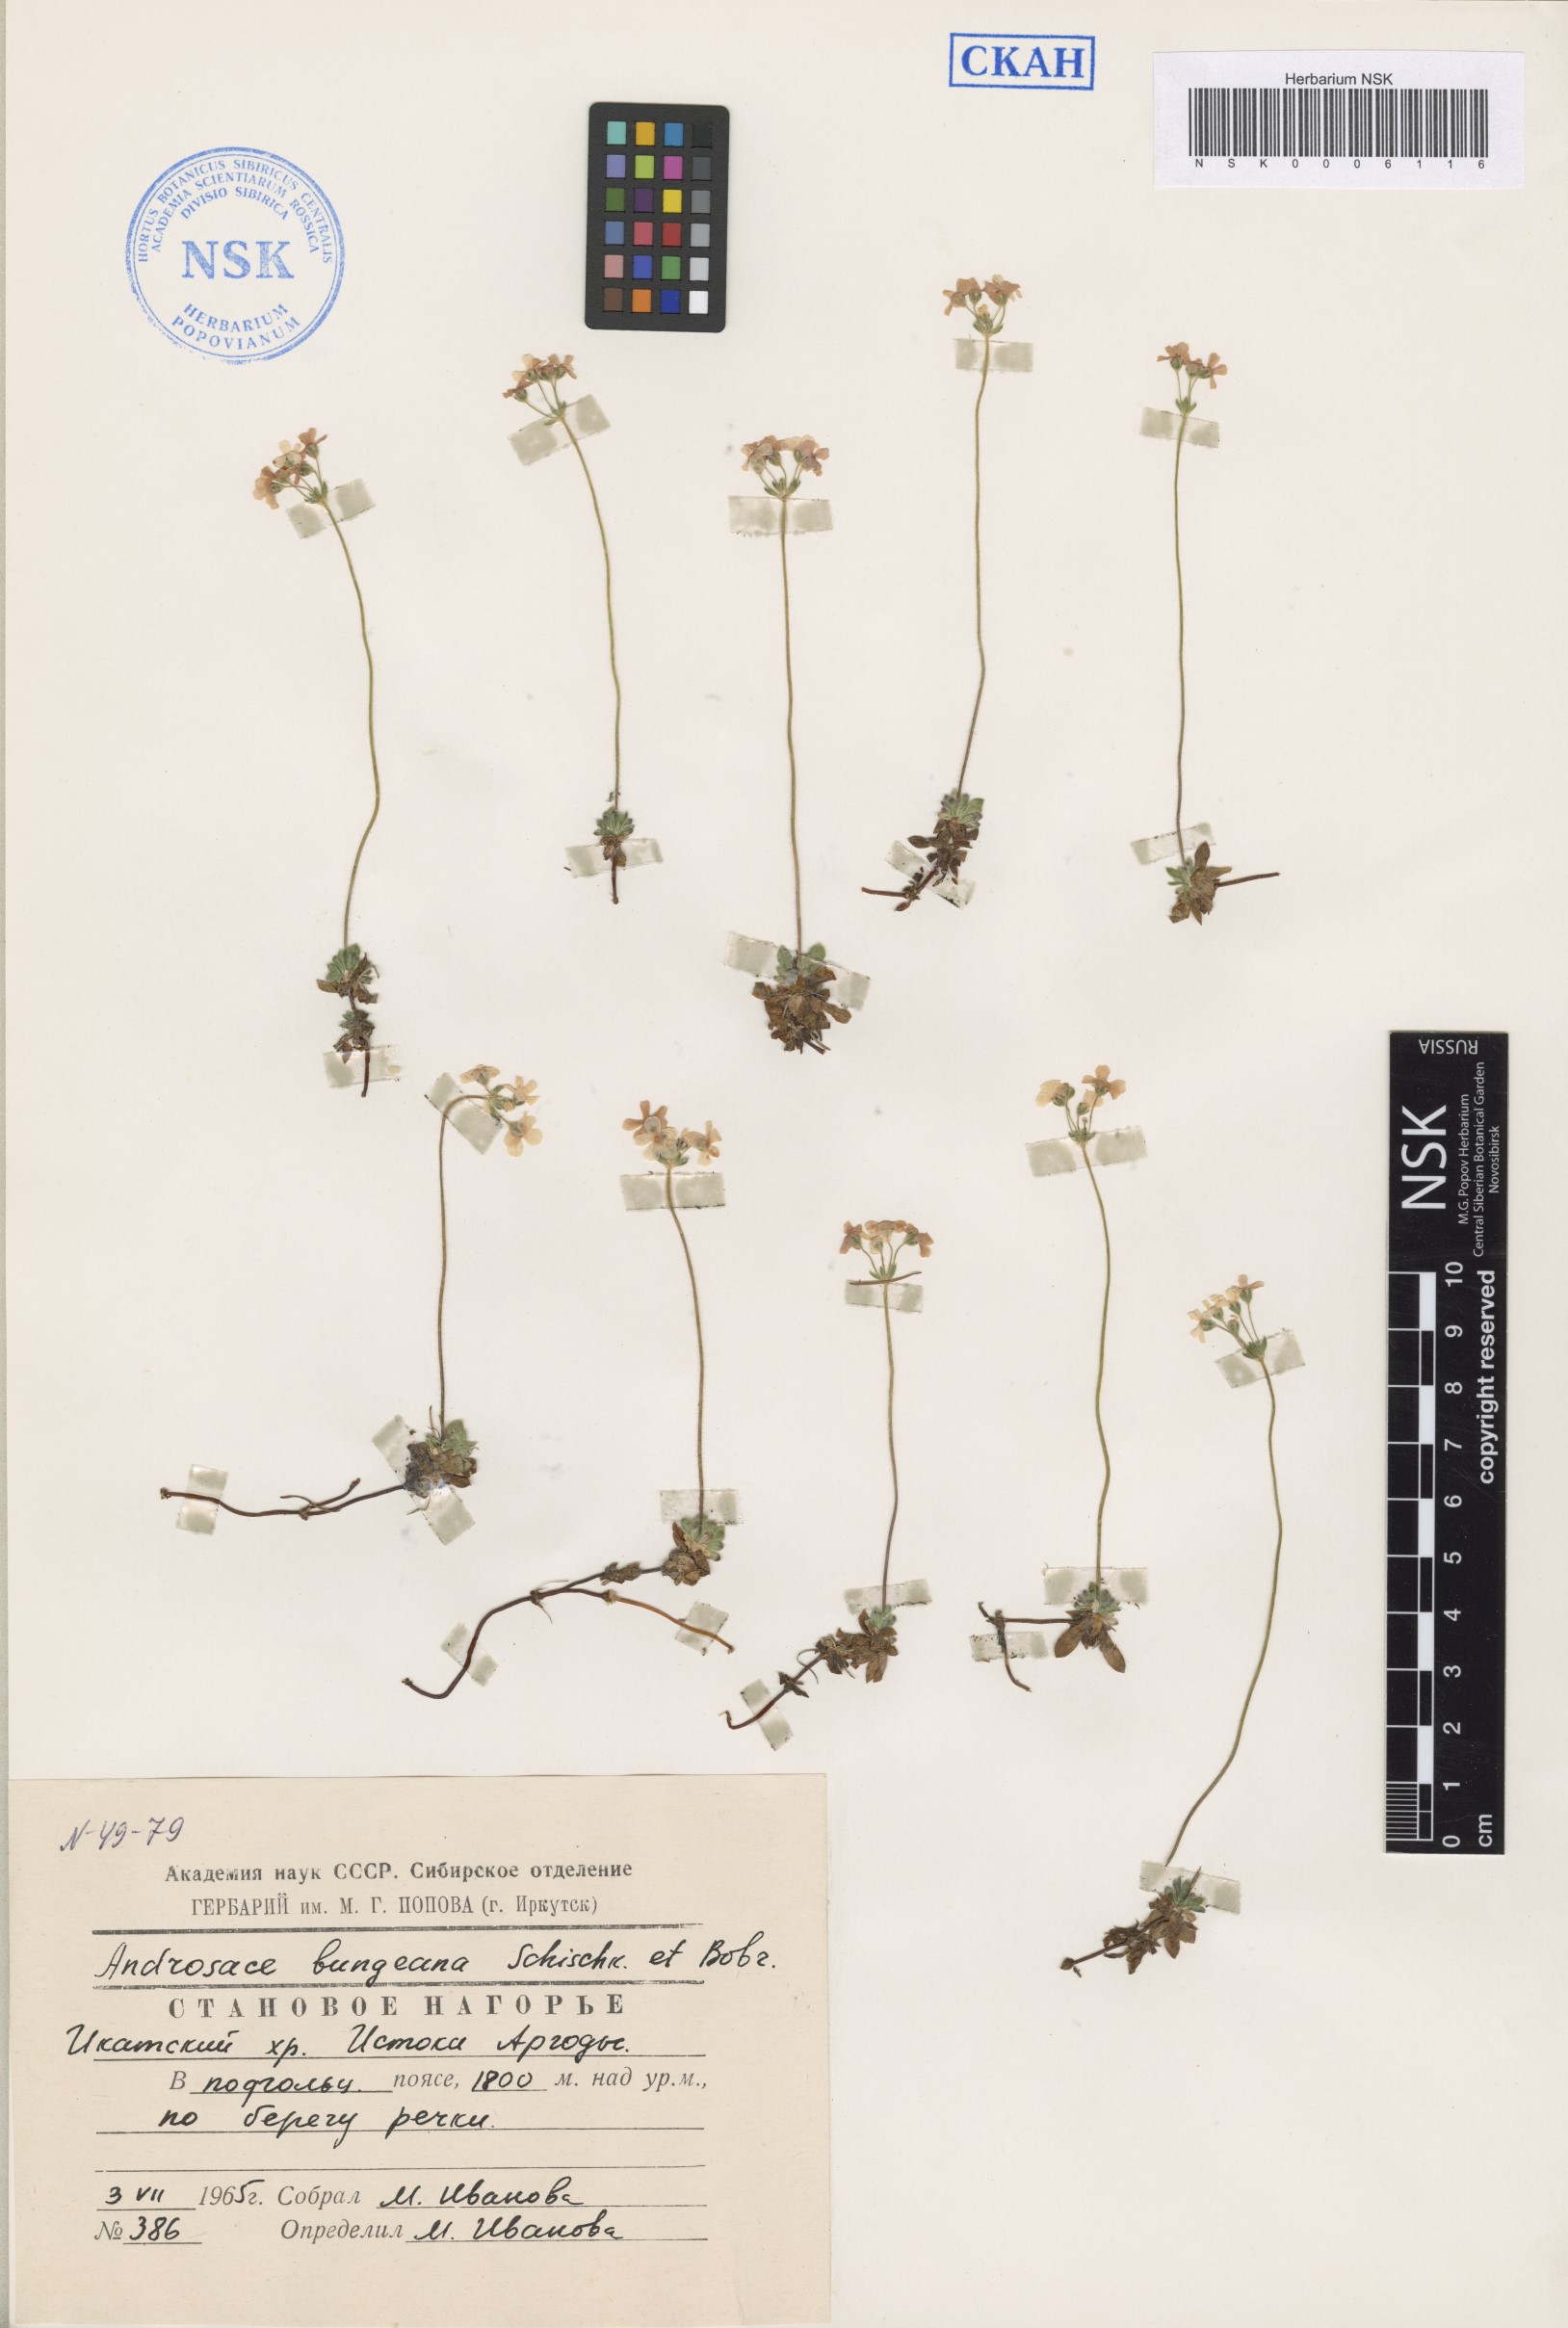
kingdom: Plantae
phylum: Tracheophyta
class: Magnoliopsida
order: Ericales
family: Primulaceae
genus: Androsace
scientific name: Androsace bungeana
